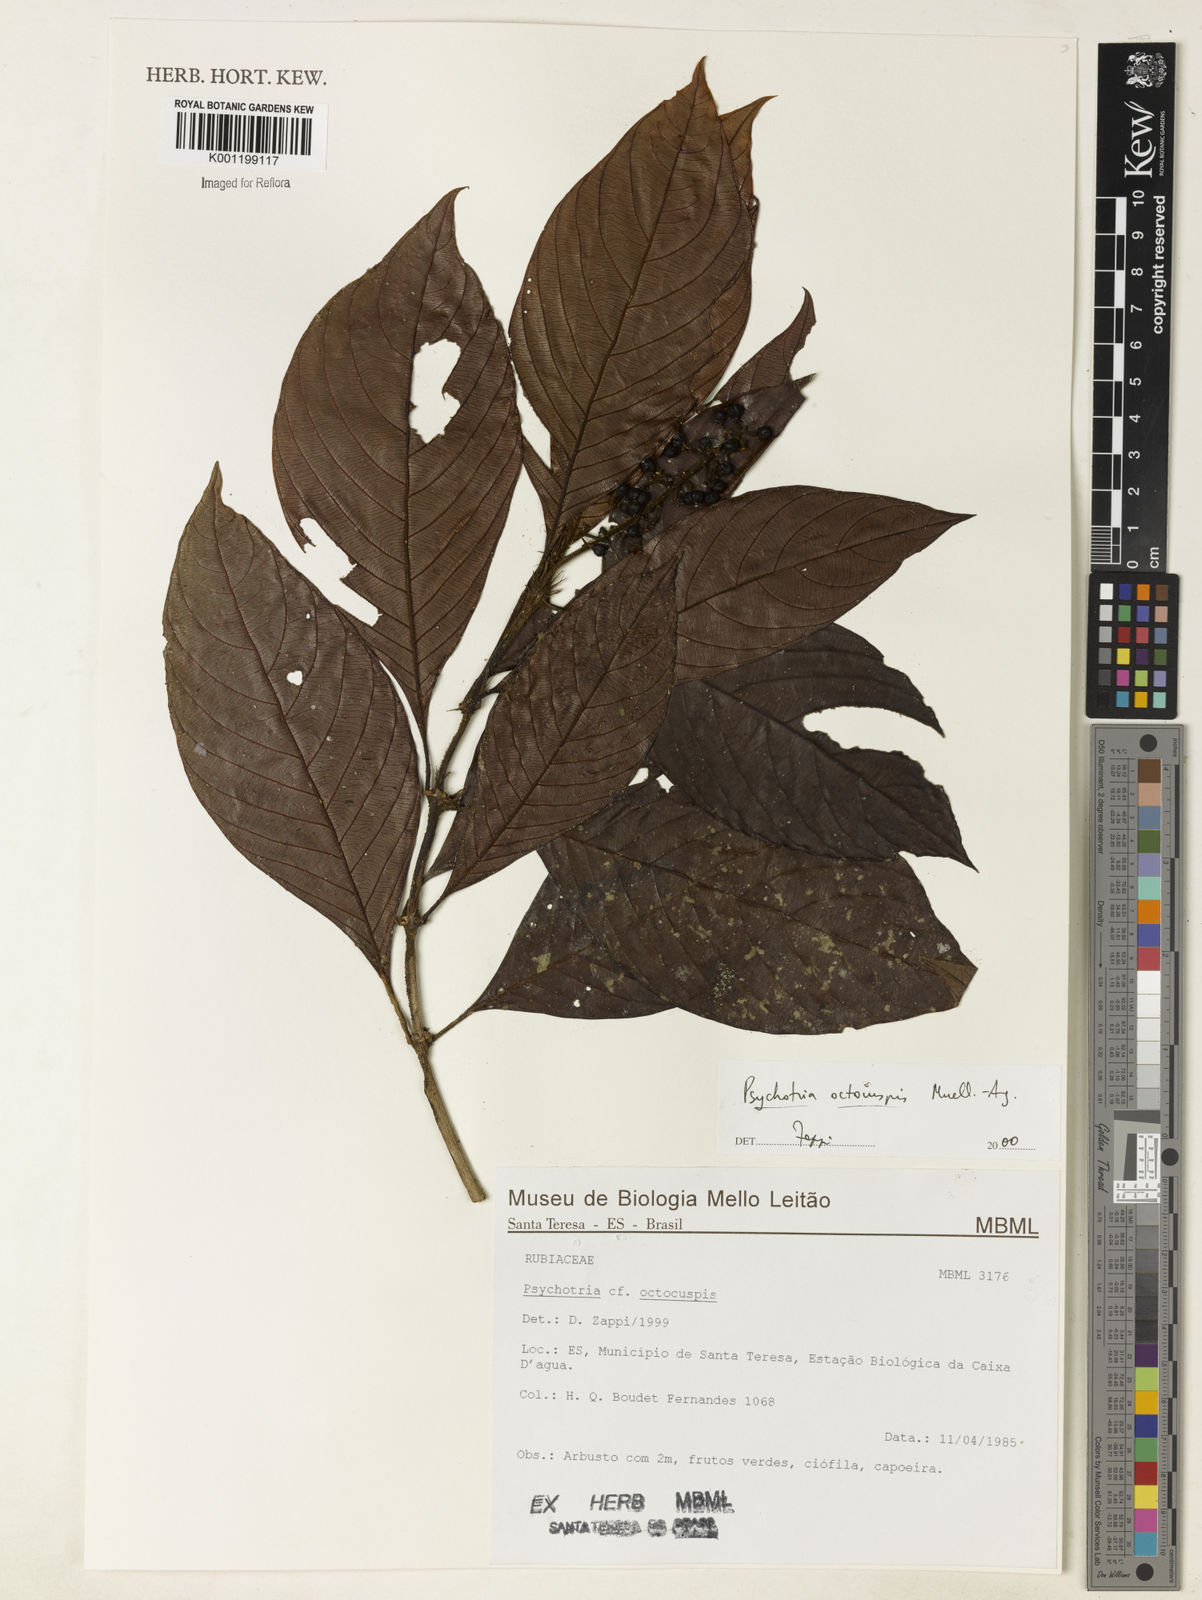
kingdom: Plantae
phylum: Tracheophyta
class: Magnoliopsida
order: Gentianales
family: Rubiaceae
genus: Psychotria
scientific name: Psychotria
